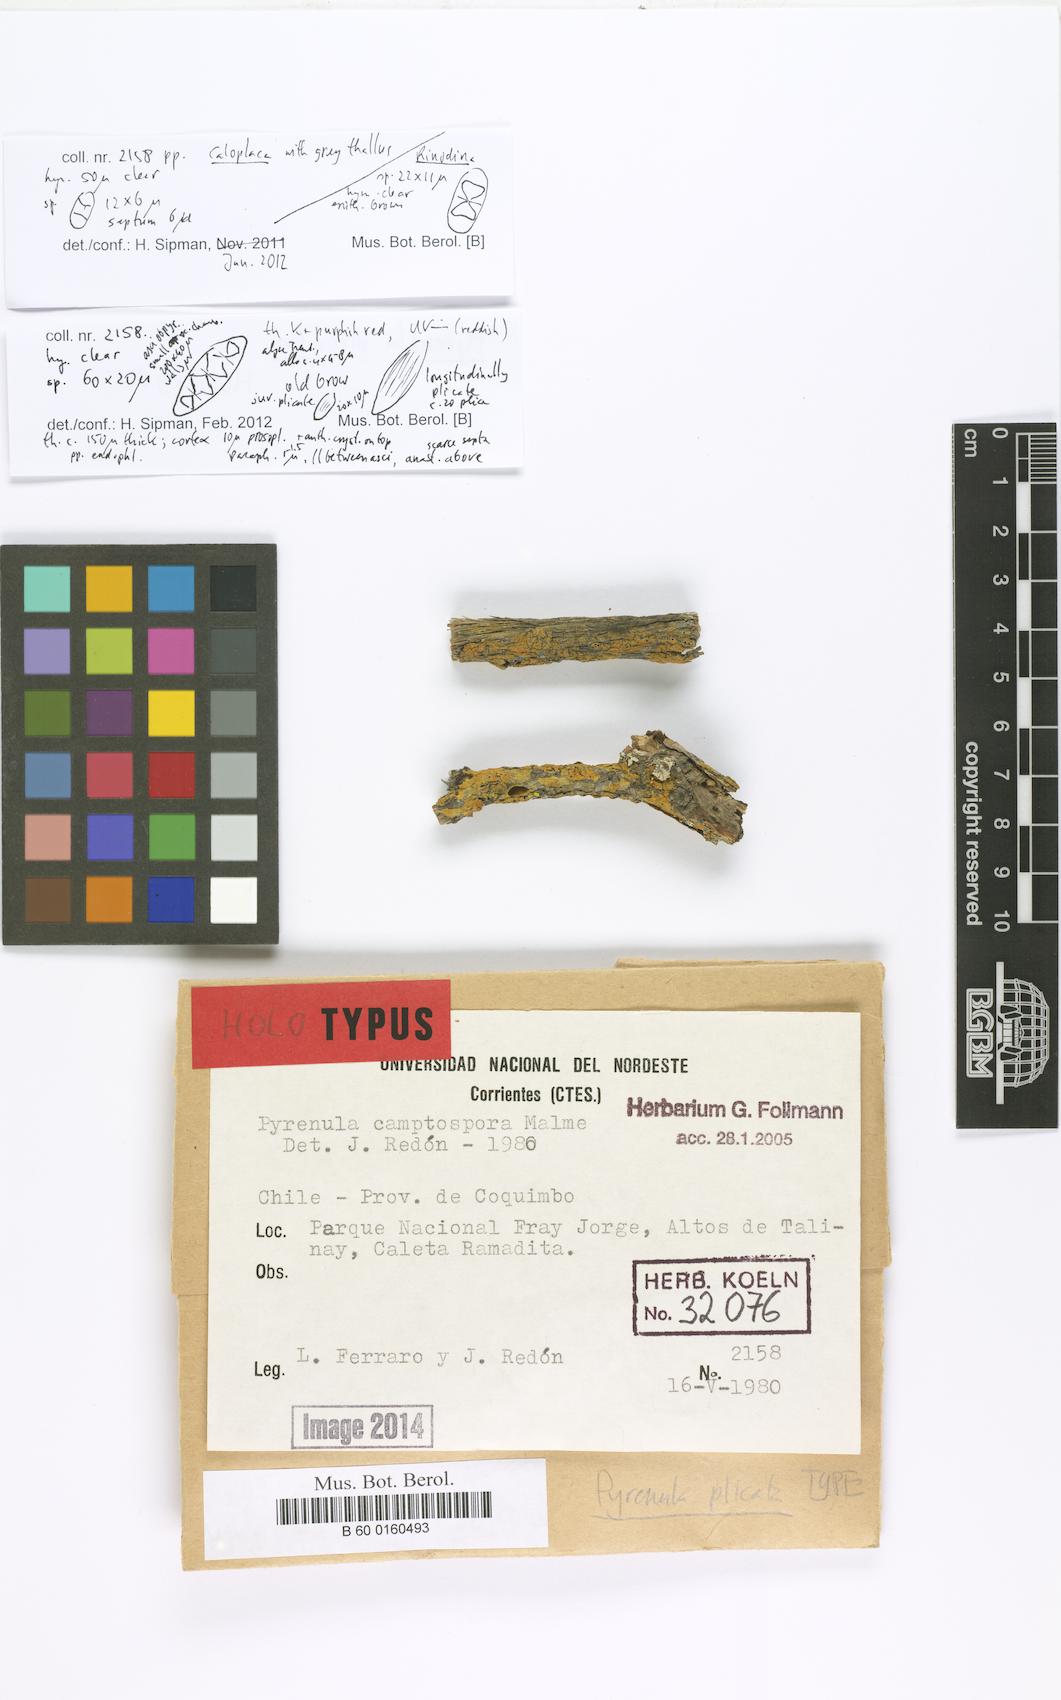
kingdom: Fungi
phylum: Ascomycota
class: Eurotiomycetes
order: Pyrenulales
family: Pyrenulaceae
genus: Pyrenula
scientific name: Pyrenula plicata
